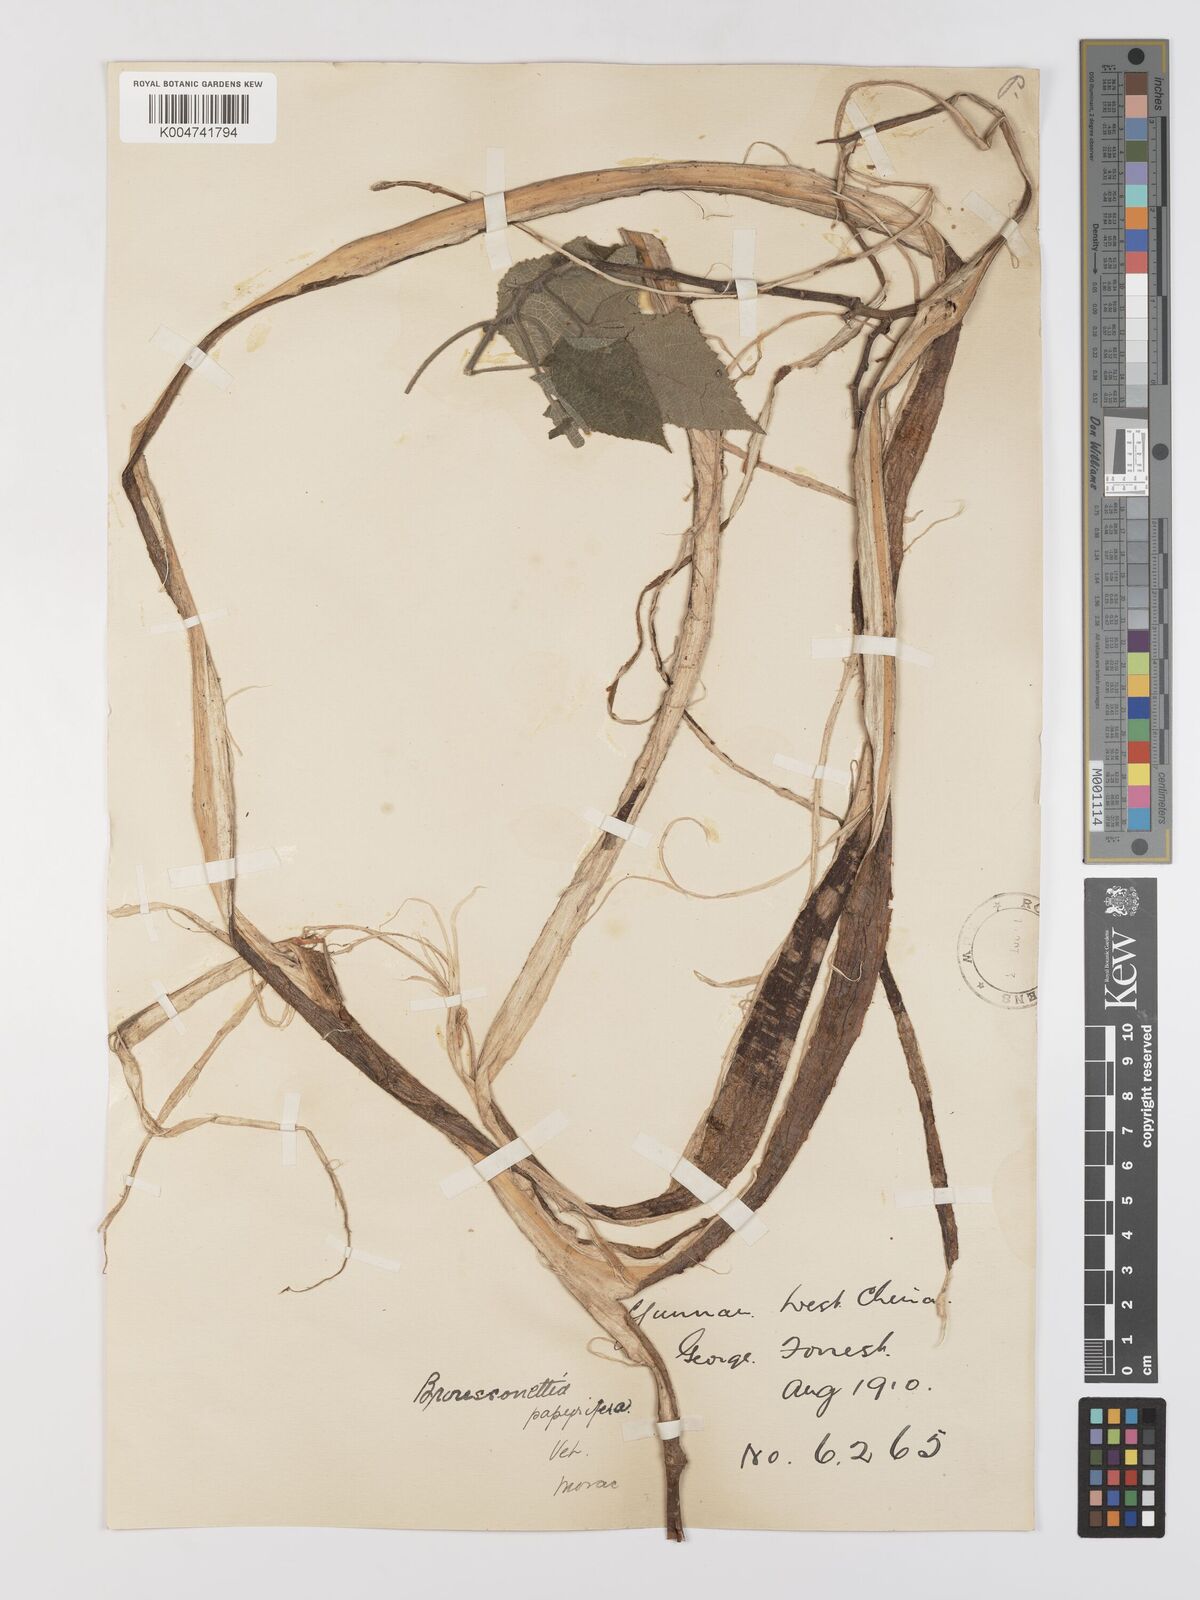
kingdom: Plantae
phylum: Tracheophyta
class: Magnoliopsida
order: Rosales
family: Moraceae
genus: Broussonetia
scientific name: Broussonetia papyrifera
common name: Paper mulberry
